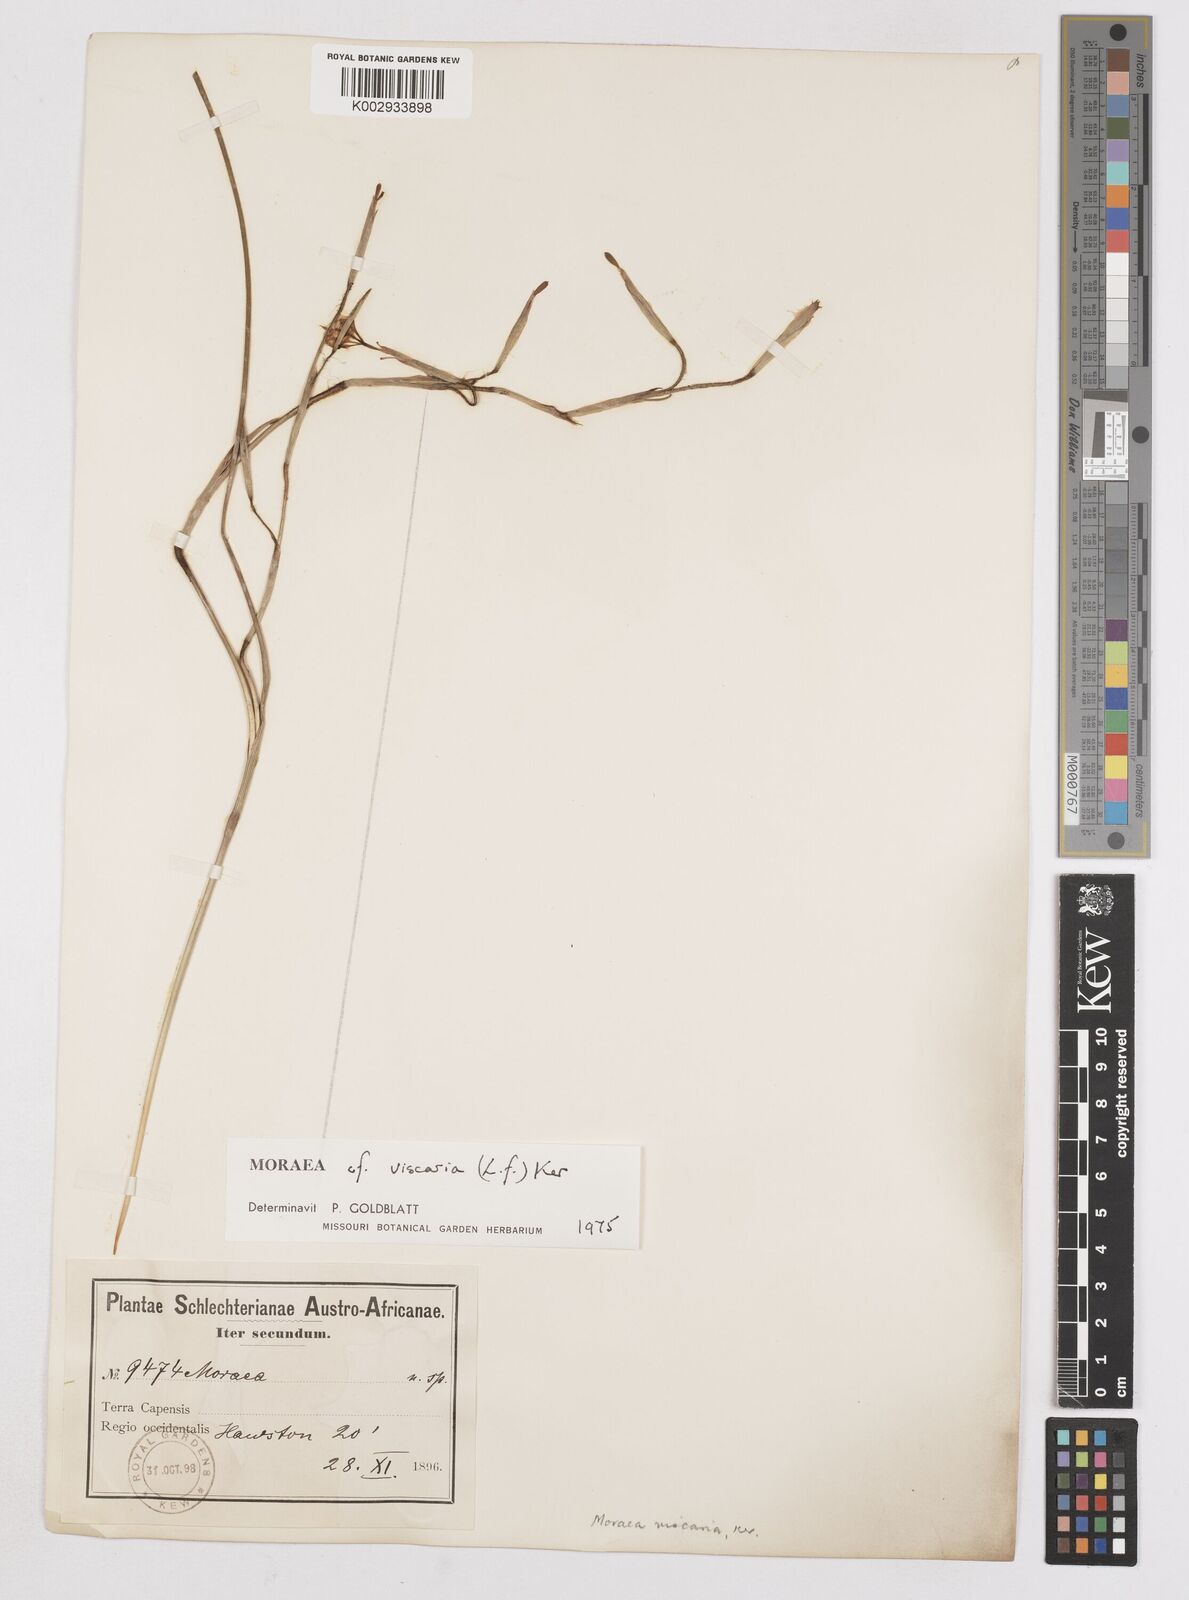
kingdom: Plantae
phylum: Tracheophyta
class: Liliopsida
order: Asparagales
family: Iridaceae
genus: Moraea
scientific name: Moraea viscaria
